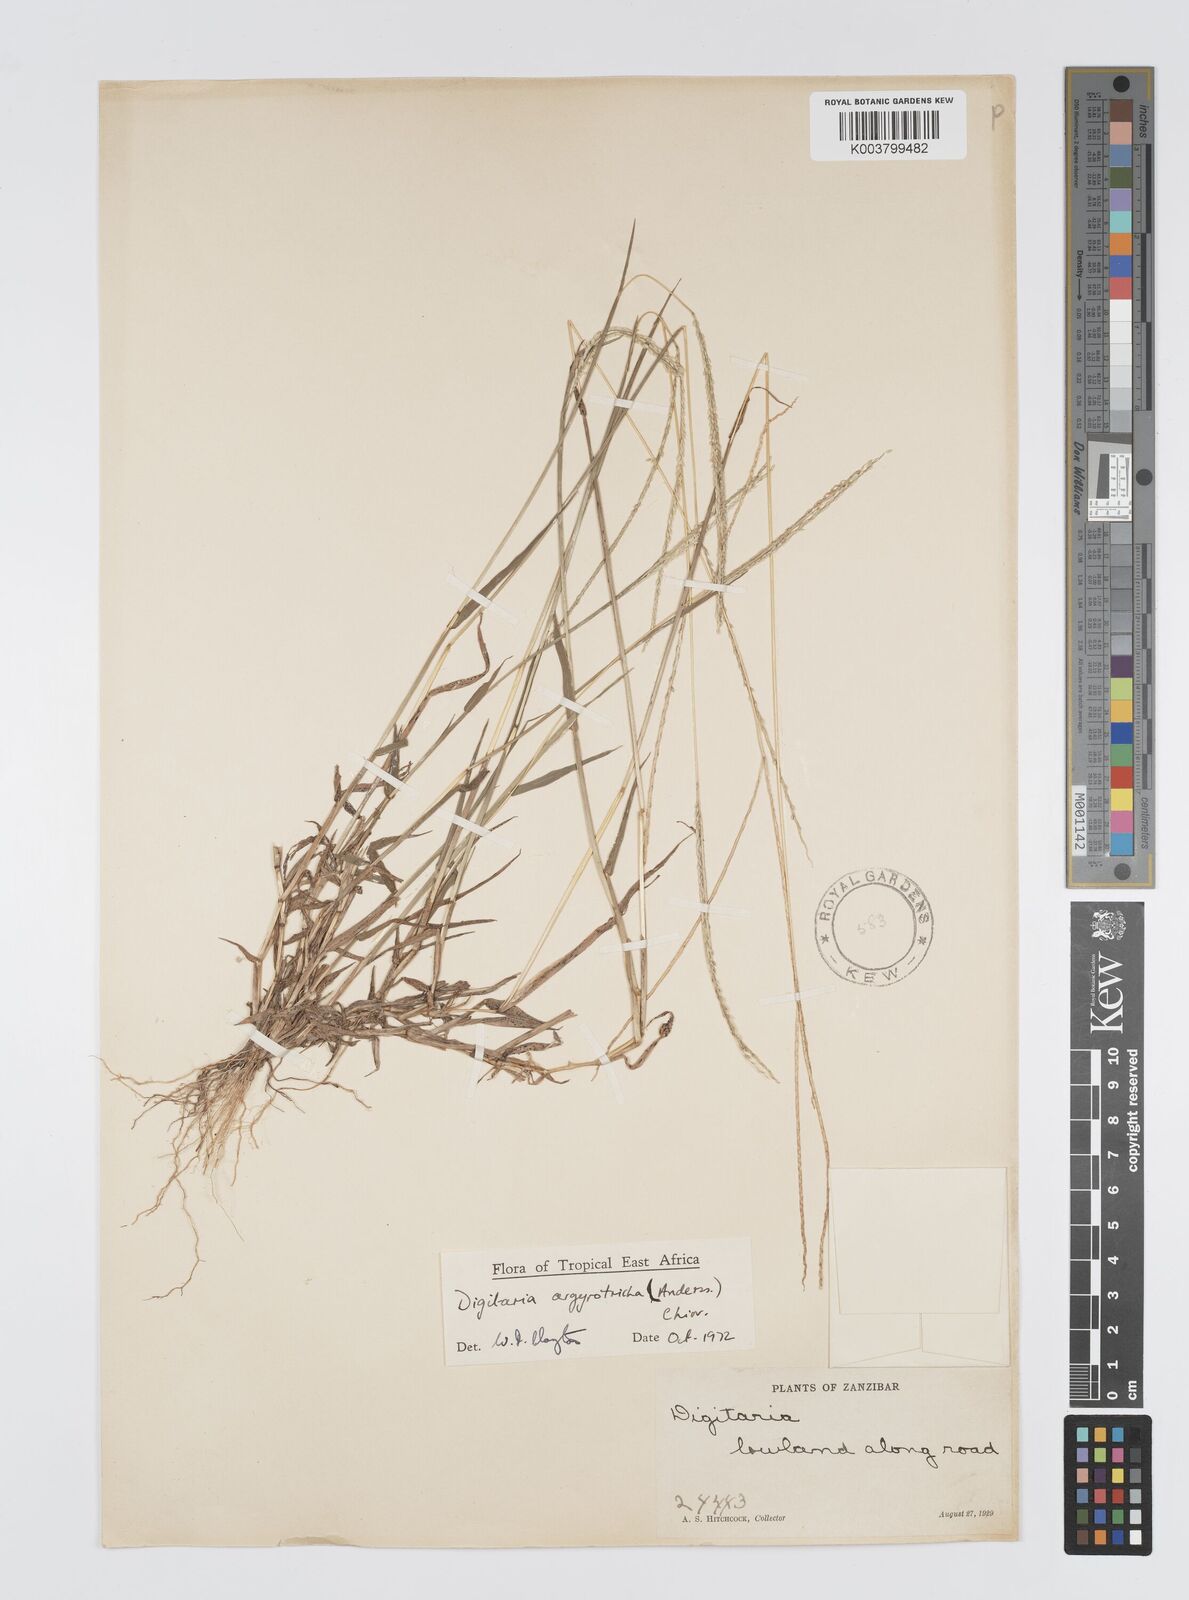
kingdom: Plantae
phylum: Tracheophyta
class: Liliopsida
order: Poales
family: Poaceae
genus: Digitaria
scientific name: Digitaria argyrotricha
